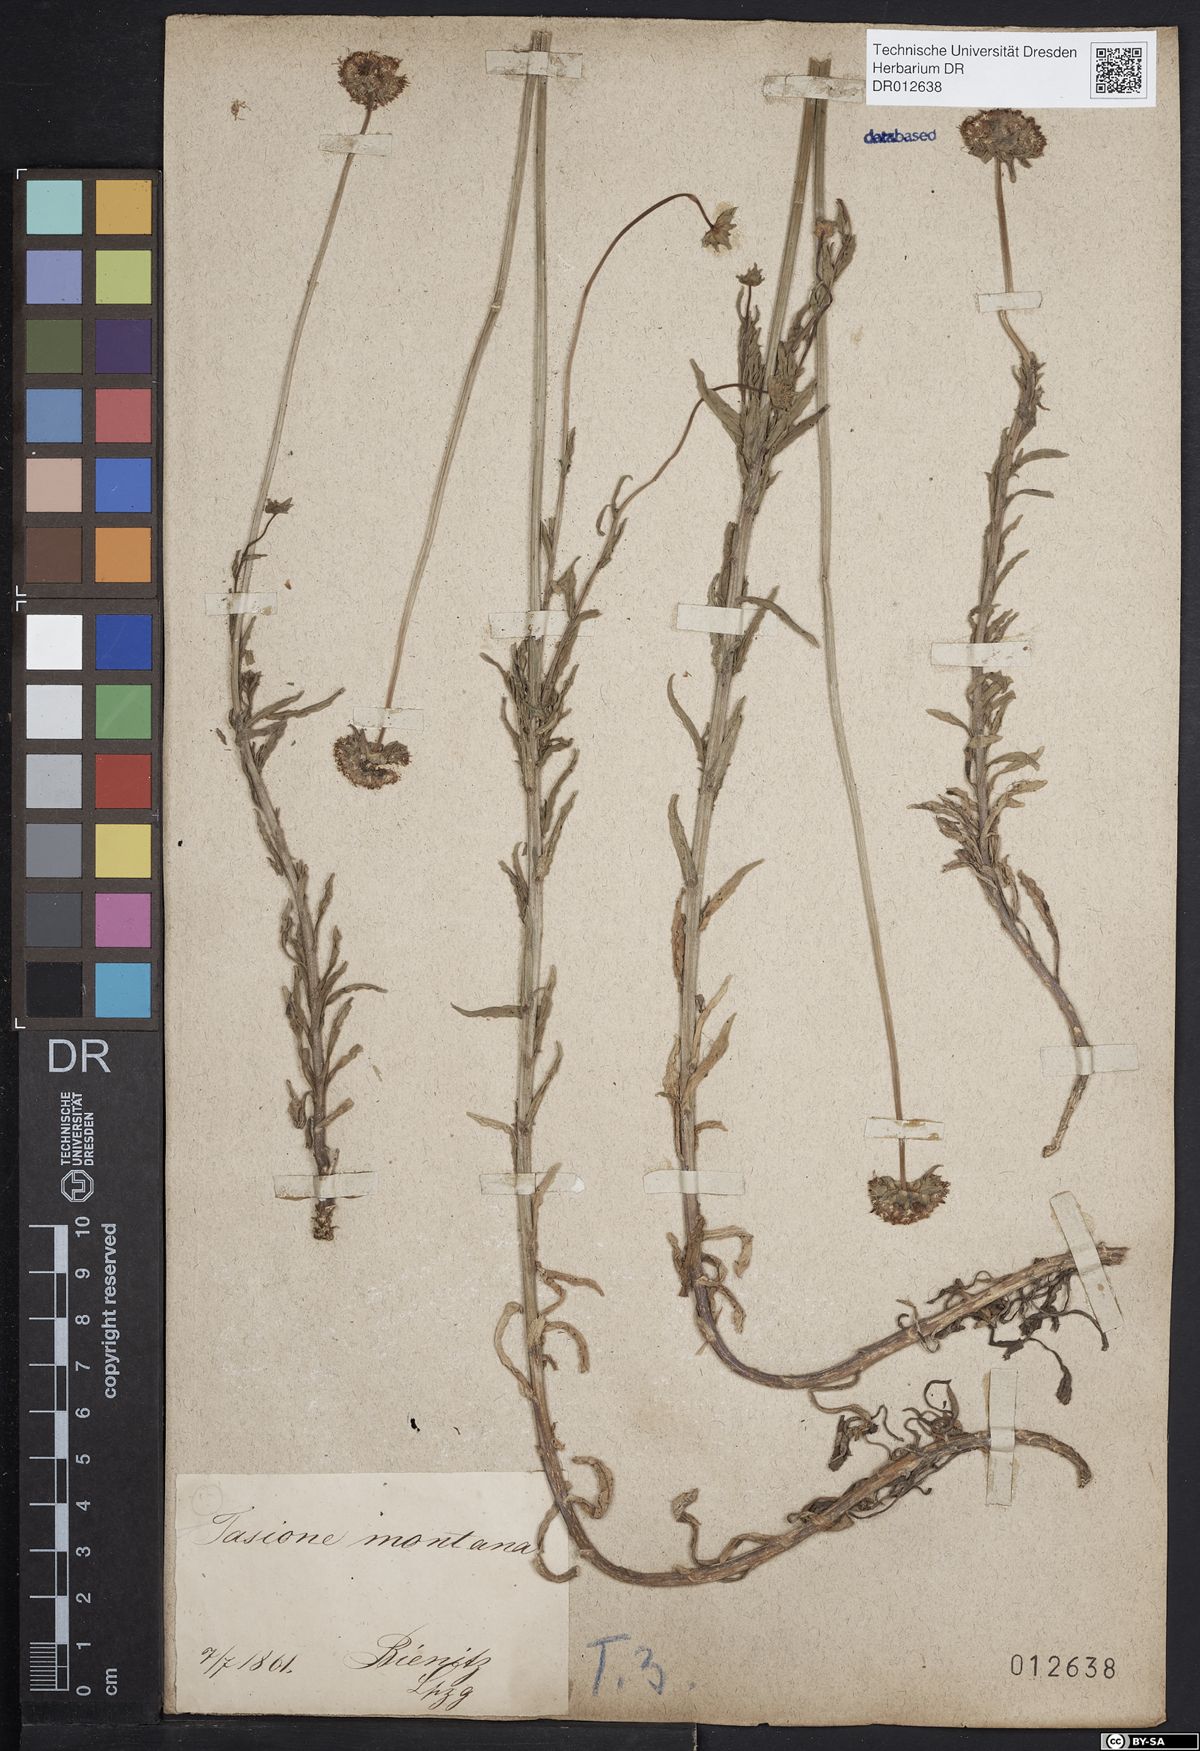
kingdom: Plantae
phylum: Tracheophyta
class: Magnoliopsida
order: Asterales
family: Campanulaceae
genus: Jasione
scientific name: Jasione montana
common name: Sheep's-bit
